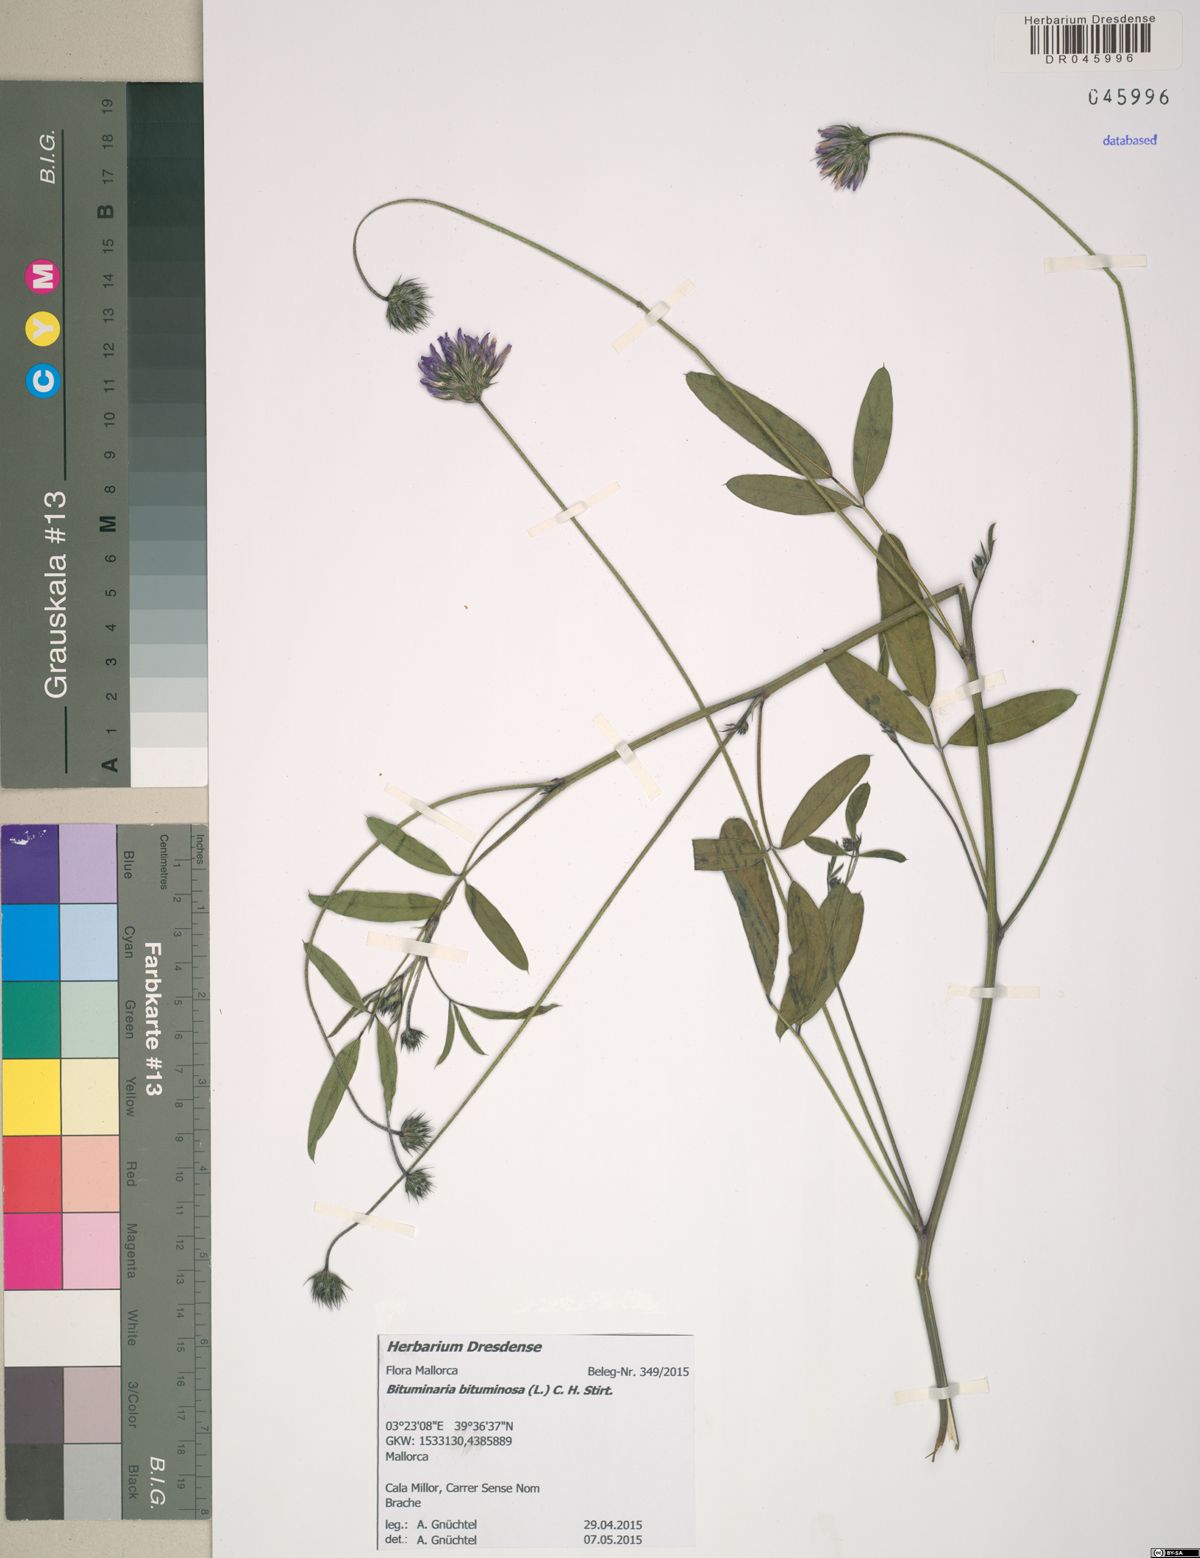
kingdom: Plantae
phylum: Tracheophyta
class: Magnoliopsida
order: Fabales
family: Fabaceae
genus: Bituminaria
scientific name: Bituminaria bituminosa
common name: Arabian pea
